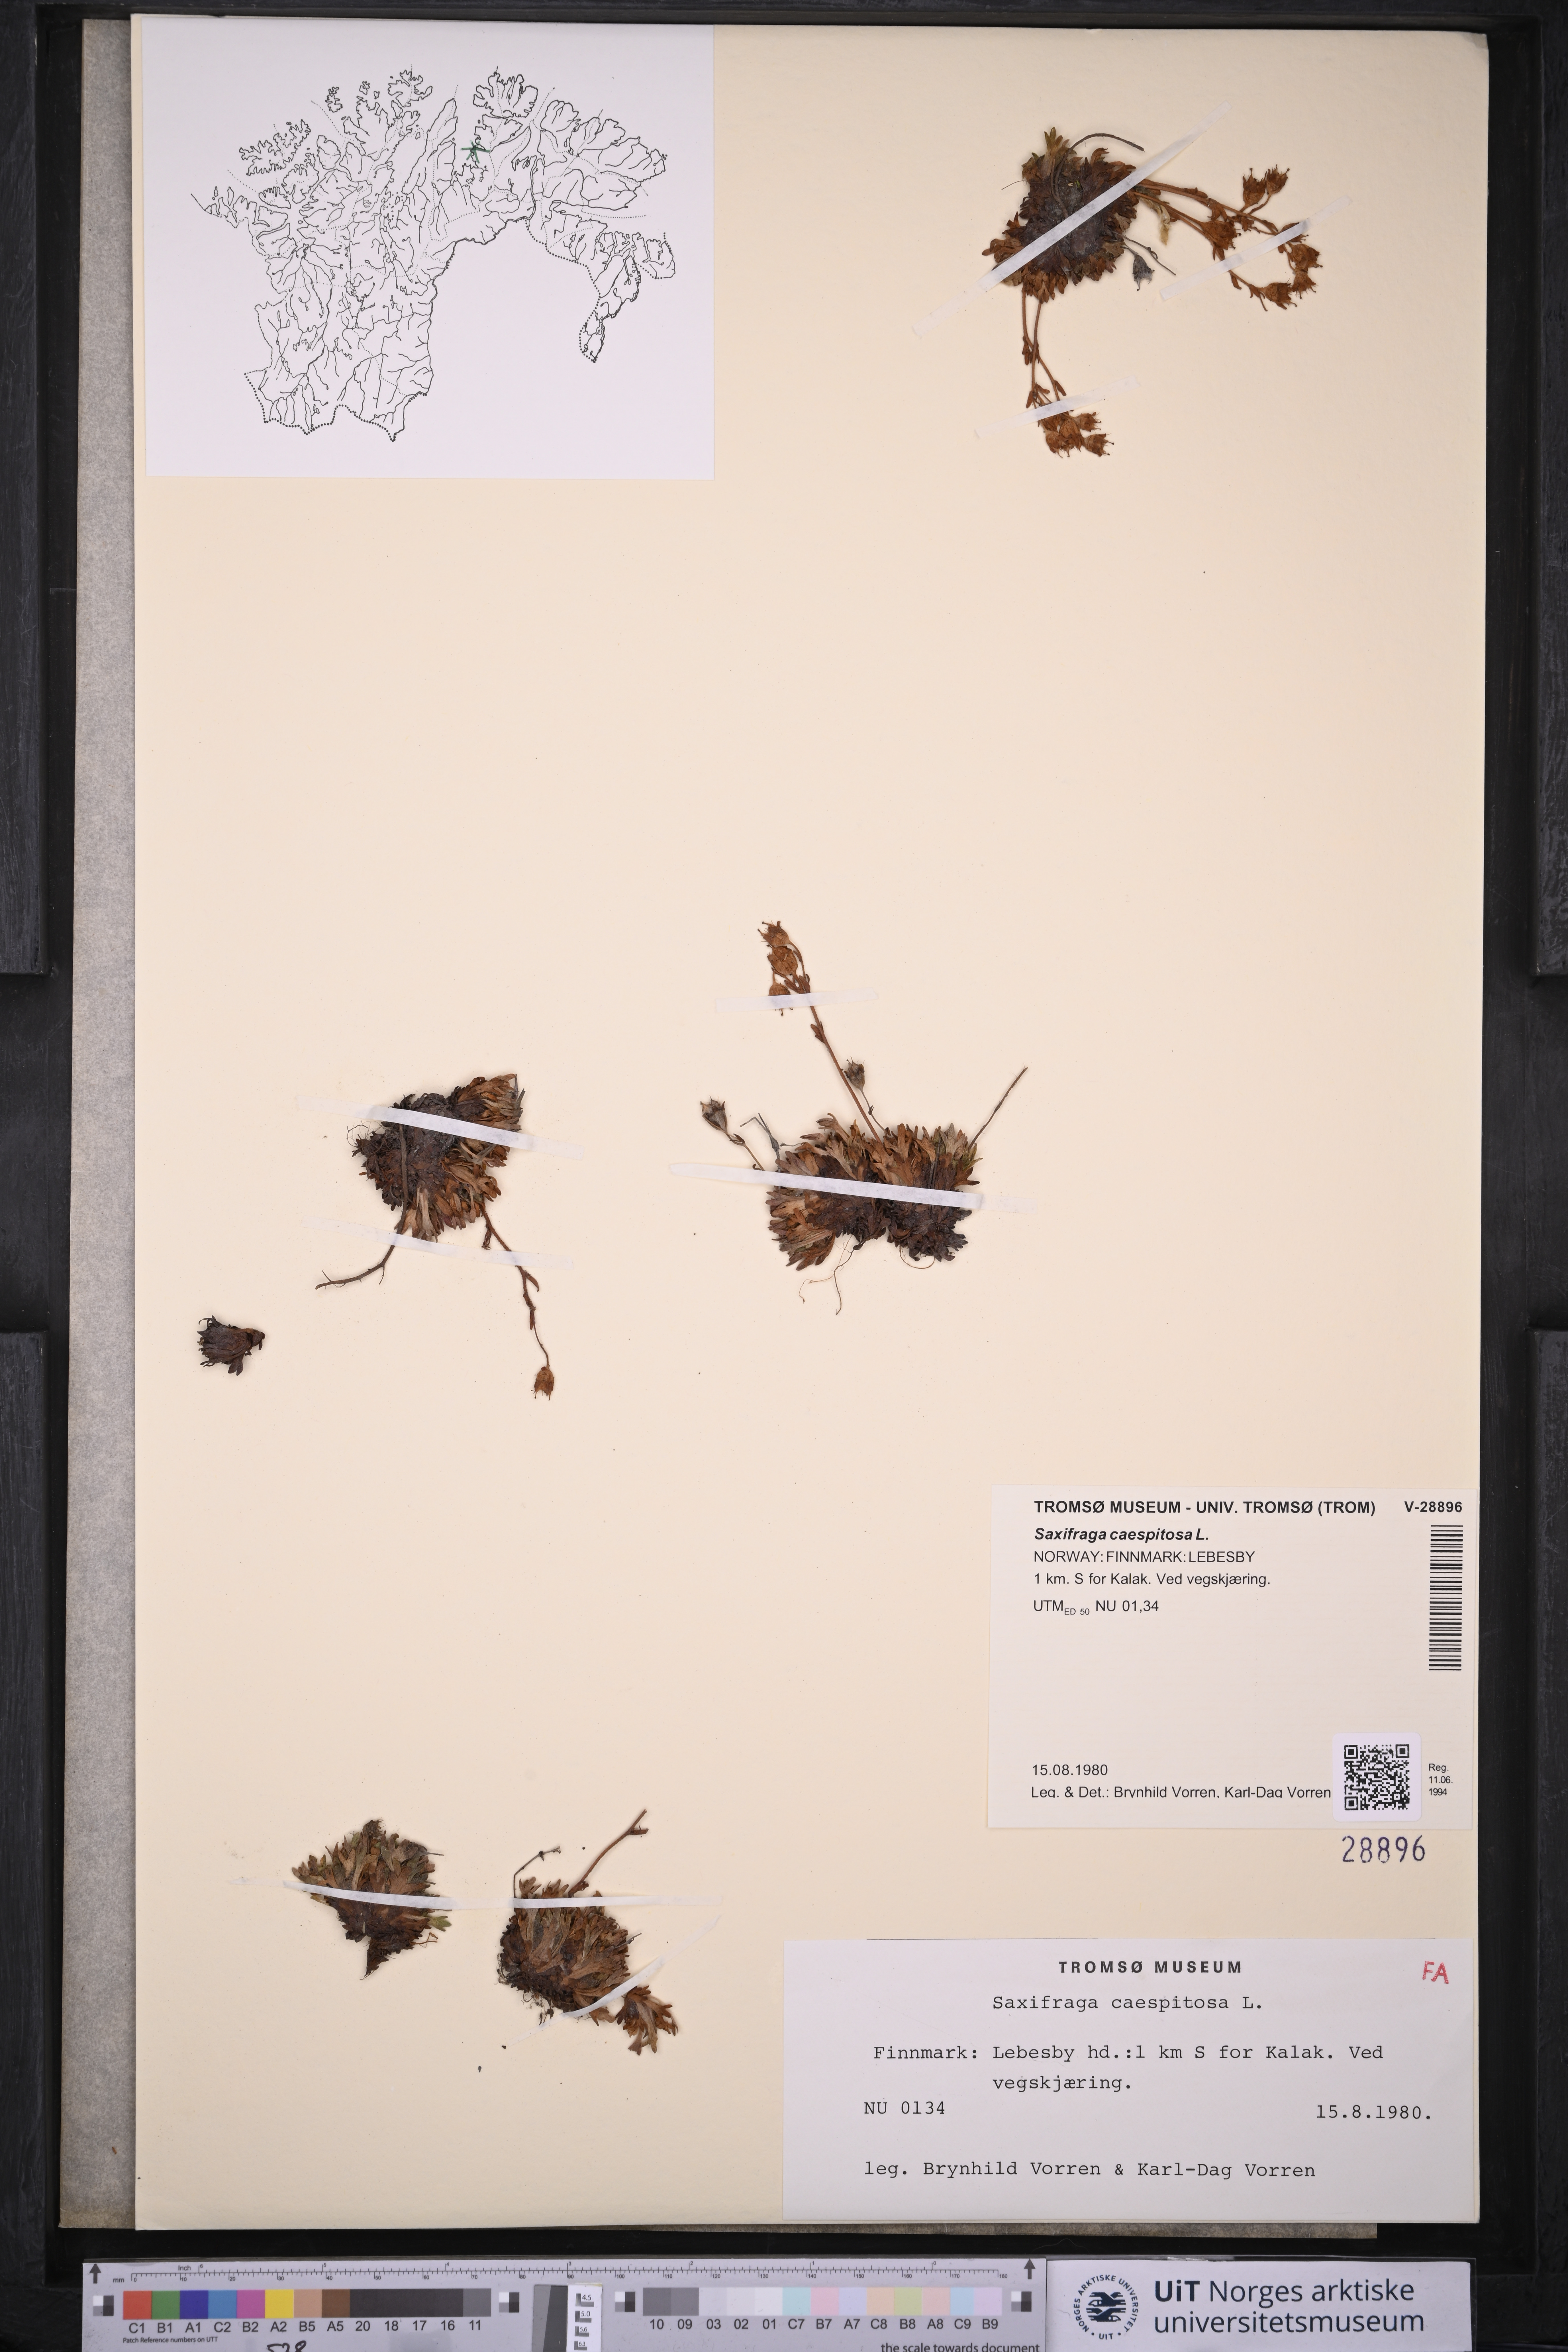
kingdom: Plantae
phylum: Tracheophyta
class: Magnoliopsida
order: Saxifragales
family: Saxifragaceae
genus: Saxifraga
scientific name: Saxifraga cespitosa
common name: Tufted saxifrage
